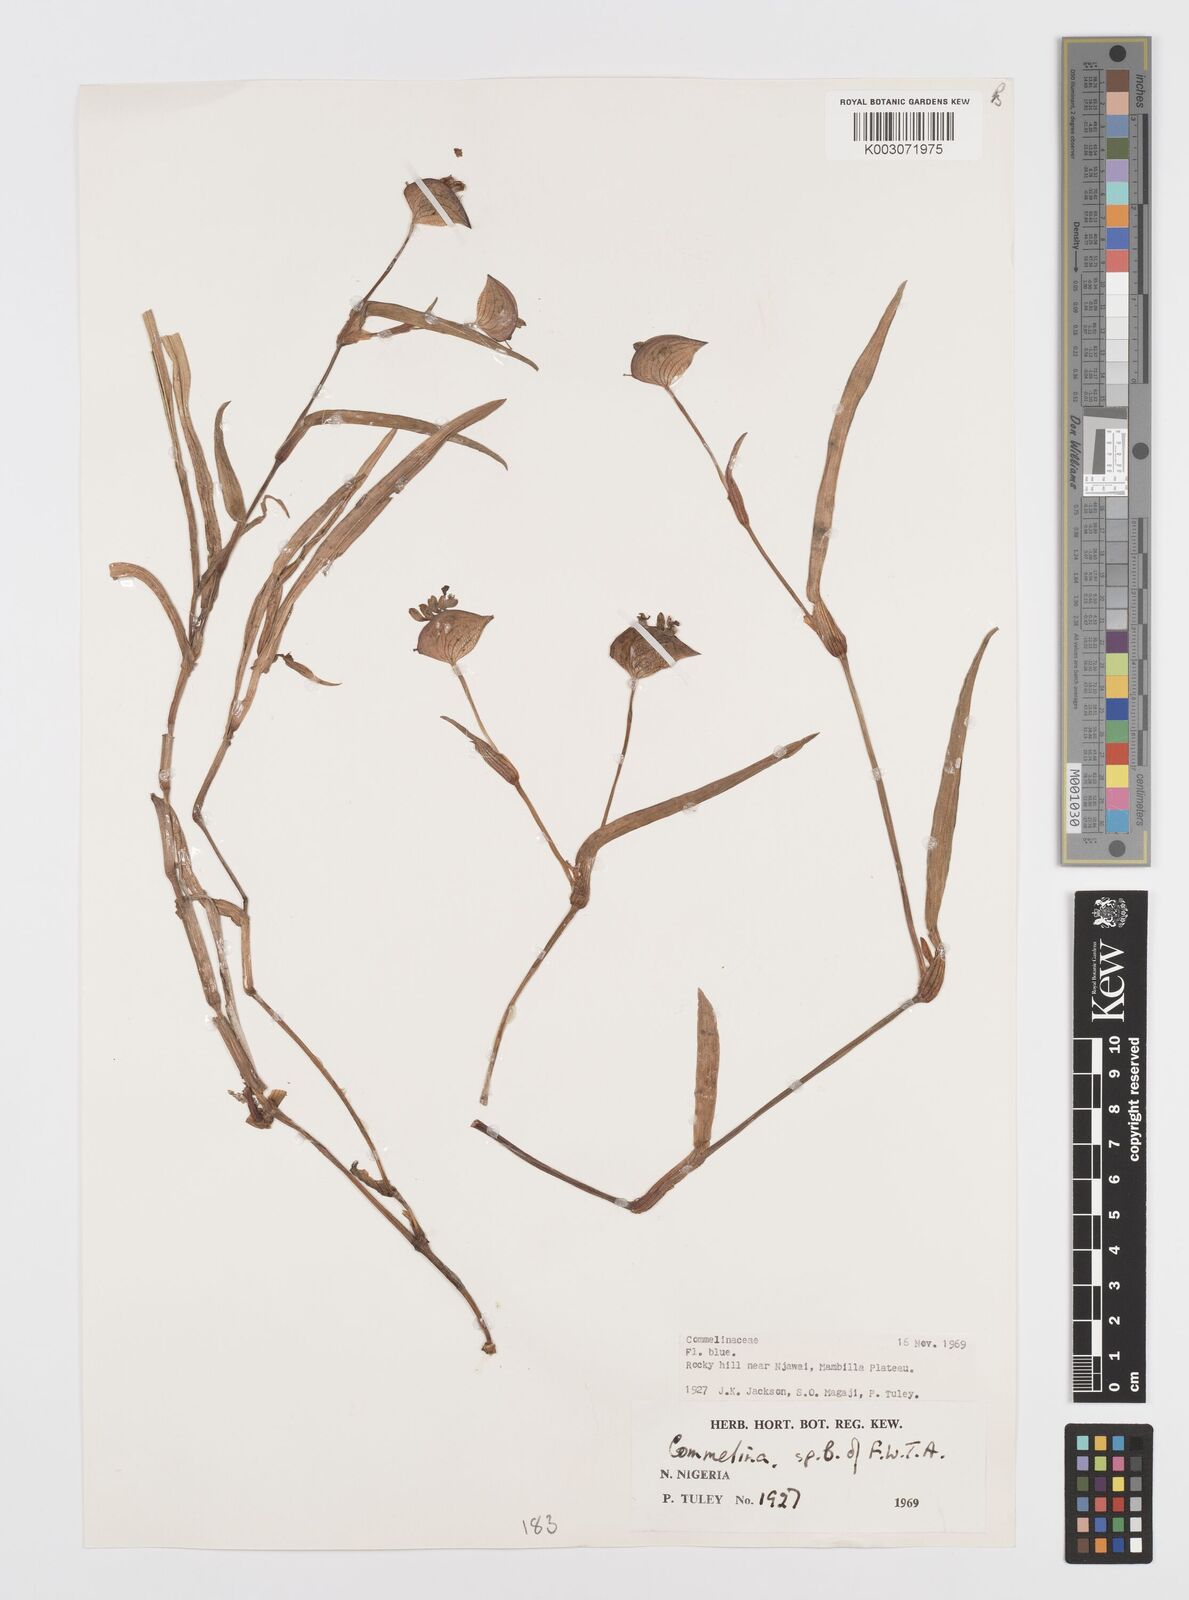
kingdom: Plantae
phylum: Tracheophyta
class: Liliopsida
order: Commelinales
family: Commelinaceae
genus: Commelina
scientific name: Commelina
